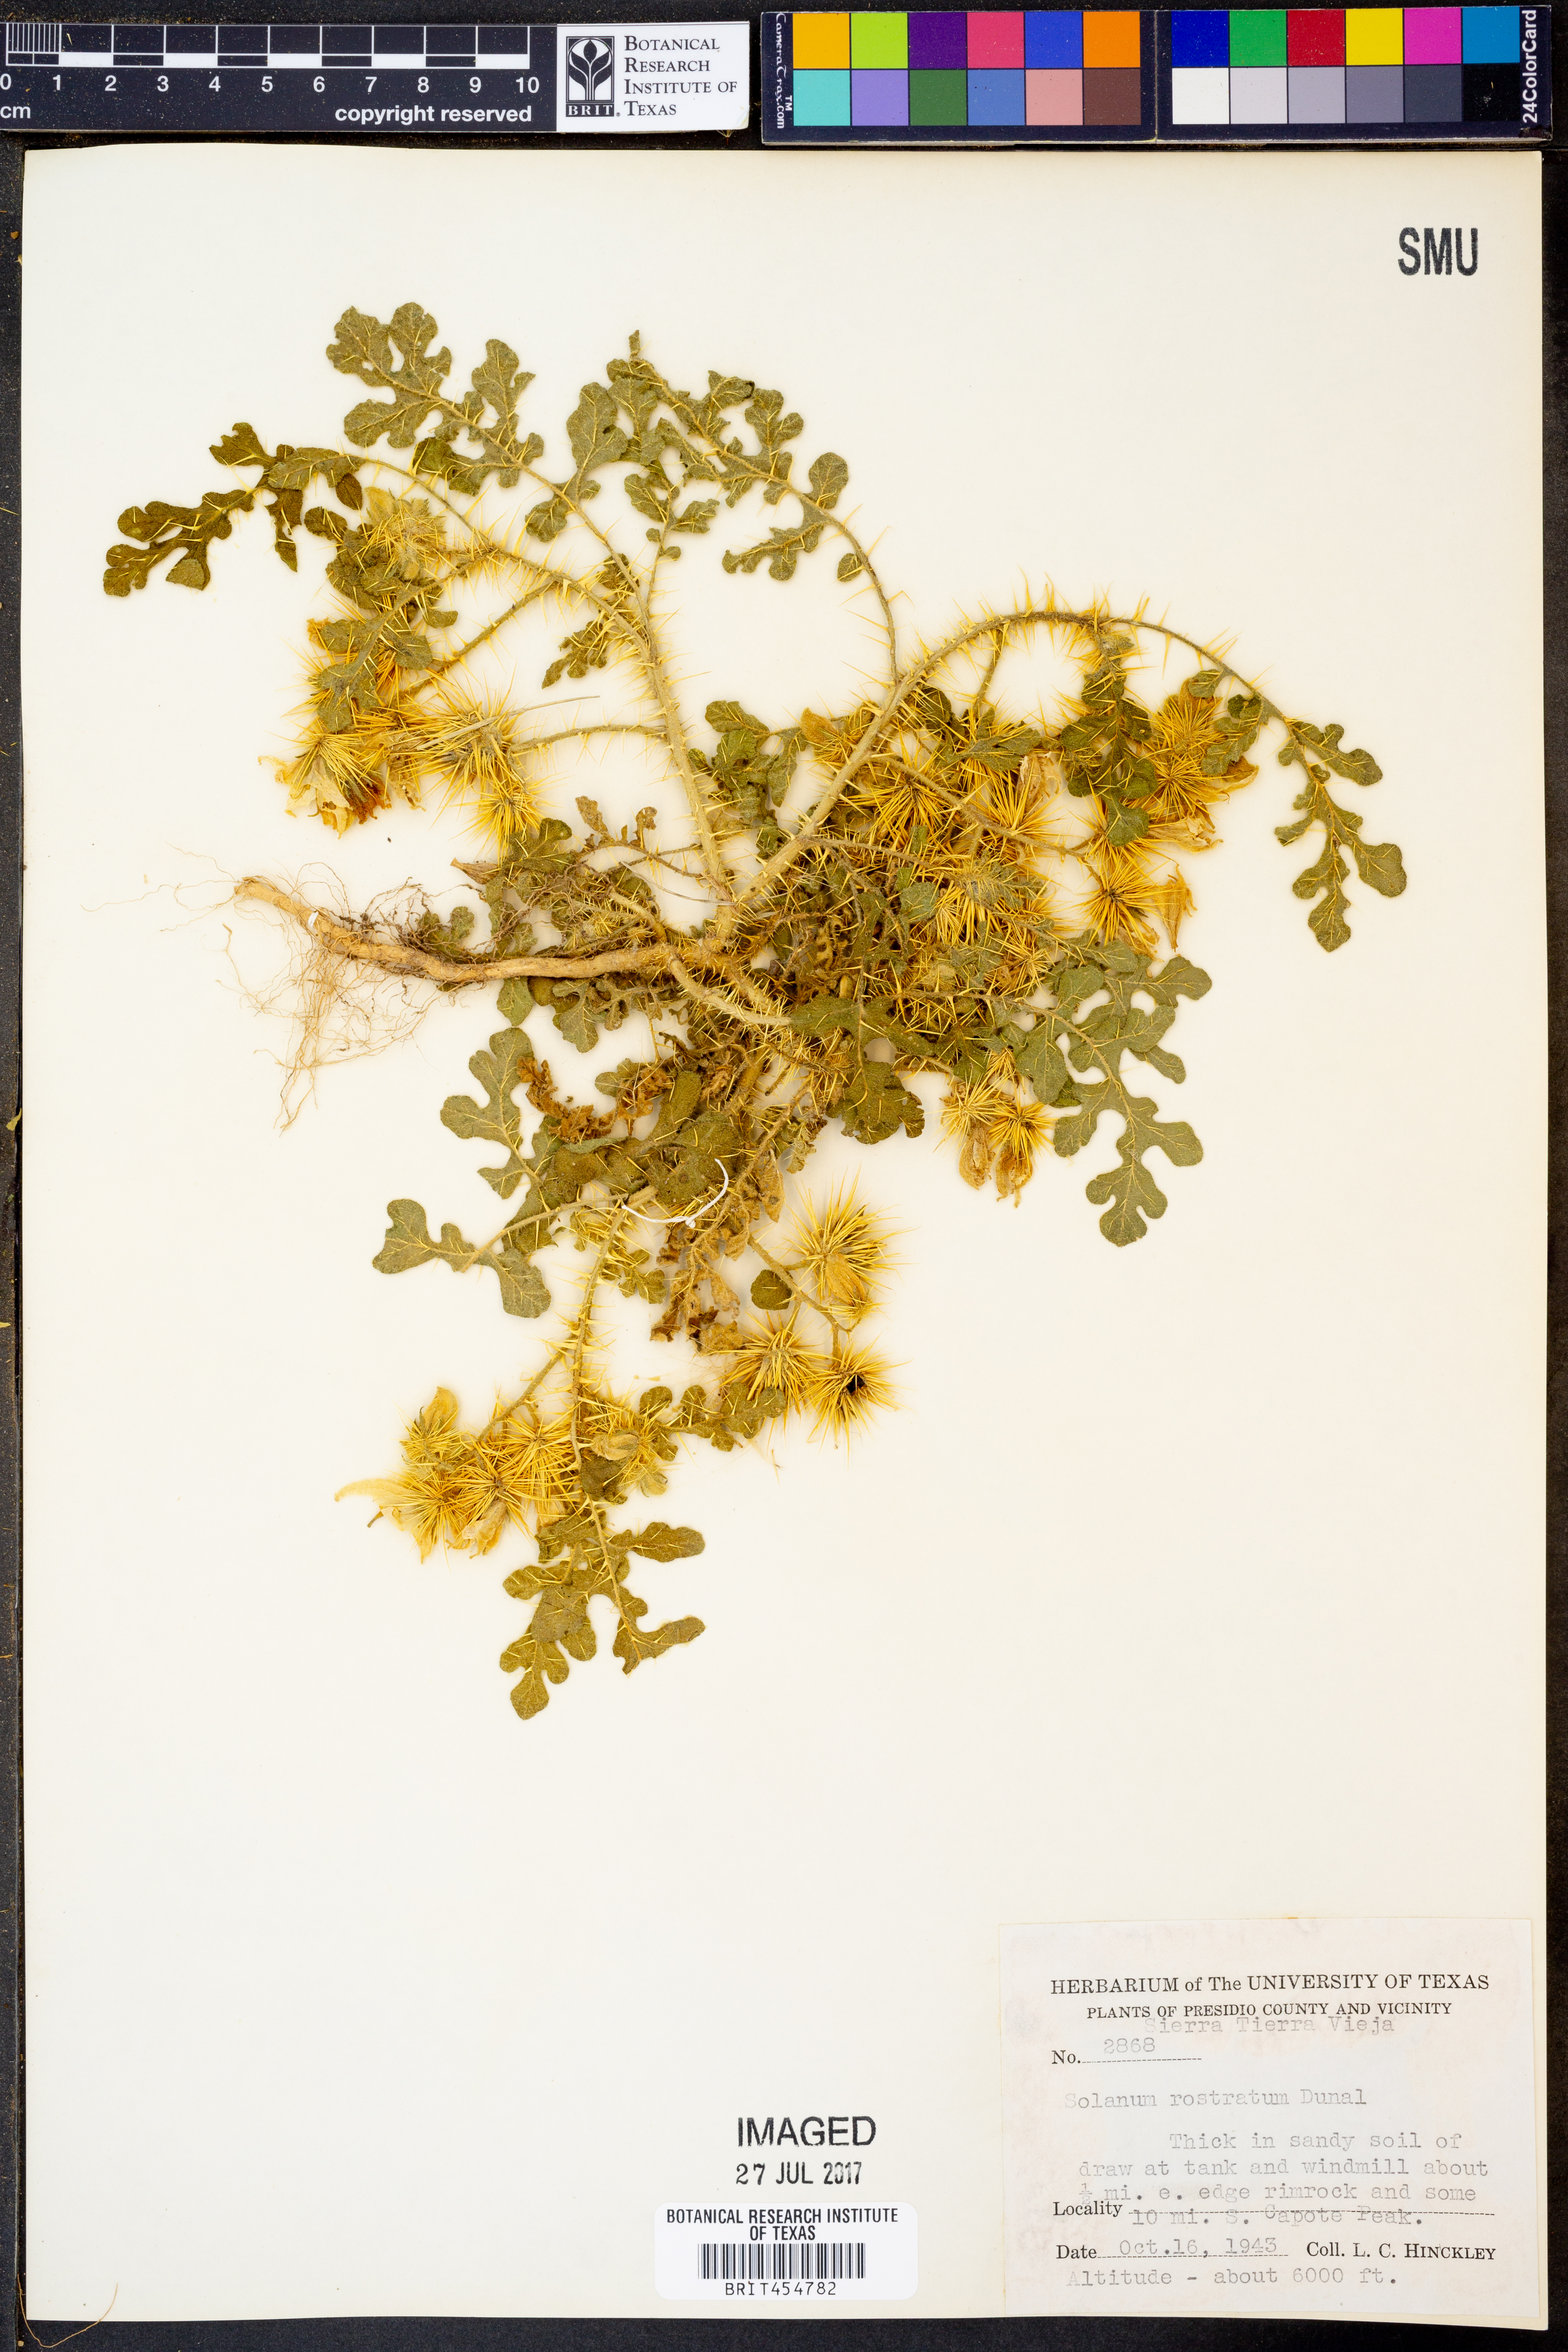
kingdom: Plantae
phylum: Tracheophyta
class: Magnoliopsida
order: Solanales
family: Solanaceae
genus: Solanum
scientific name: Solanum angustifolium
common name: Buffalobur nightshade
